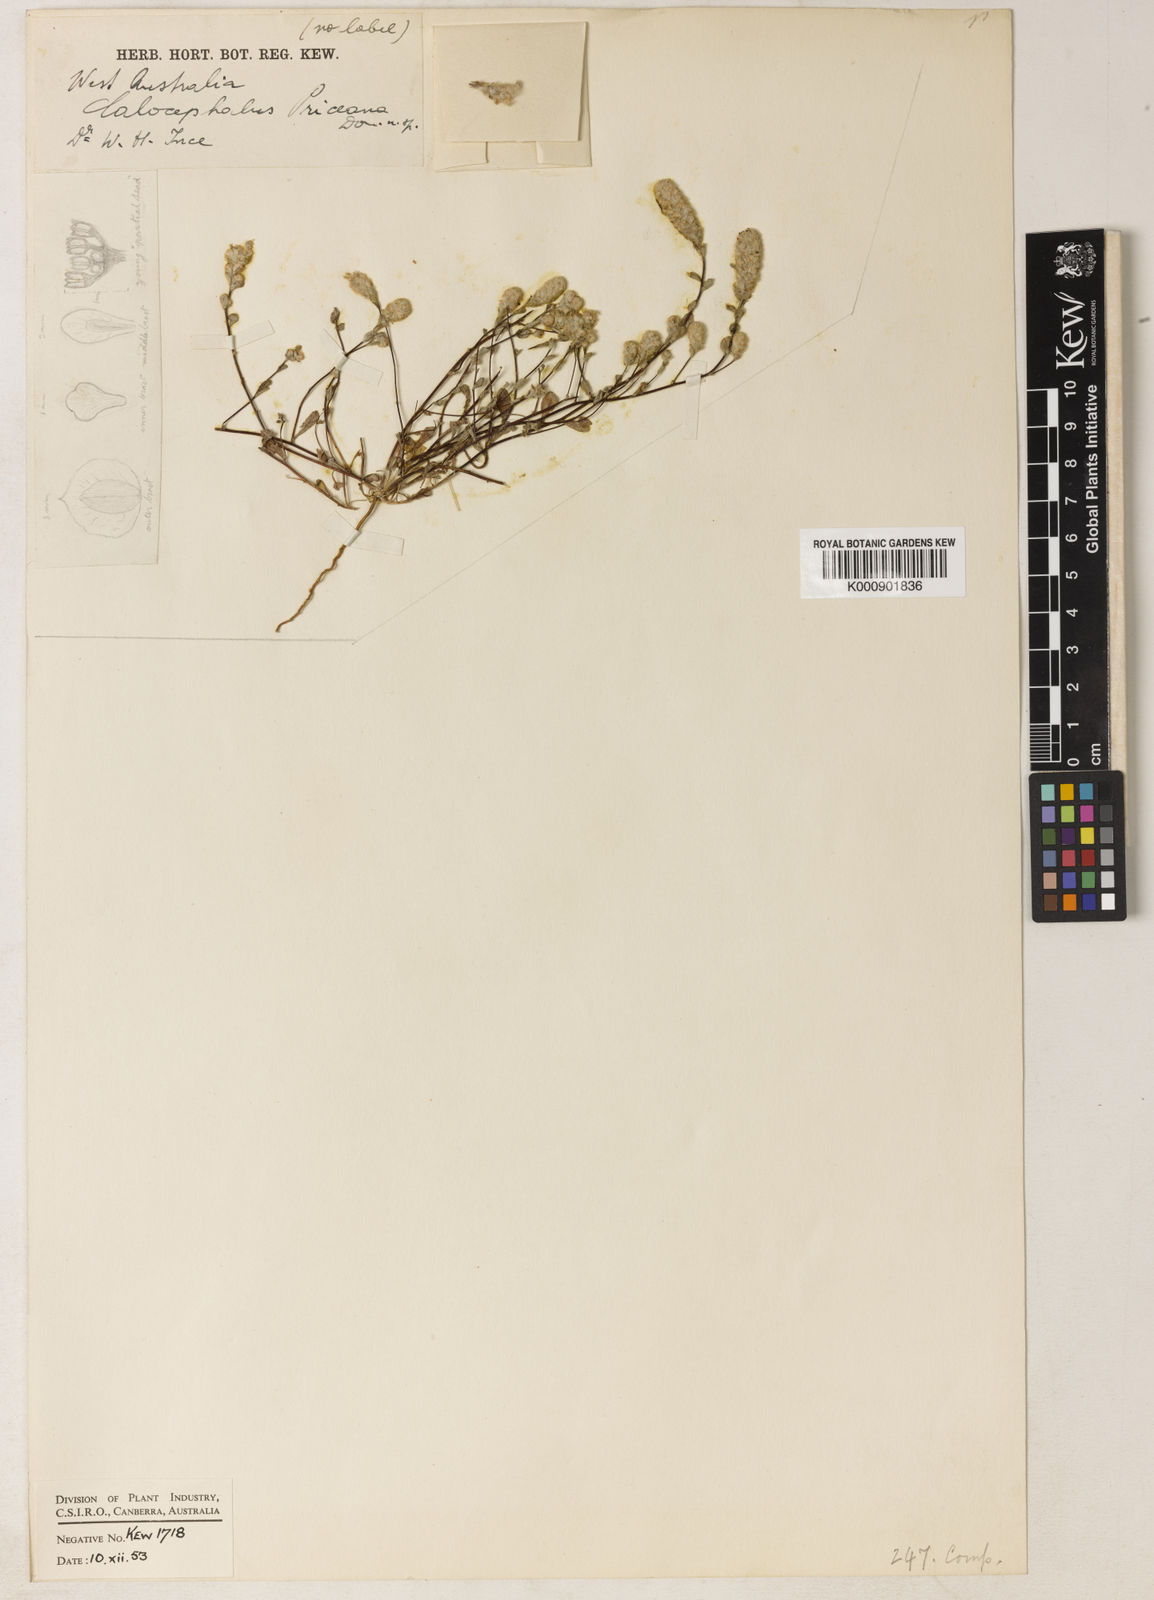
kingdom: Plantae
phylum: Tracheophyta
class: Magnoliopsida
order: Asterales
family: Asteraceae
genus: Calocephalus
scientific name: Calocephalus
